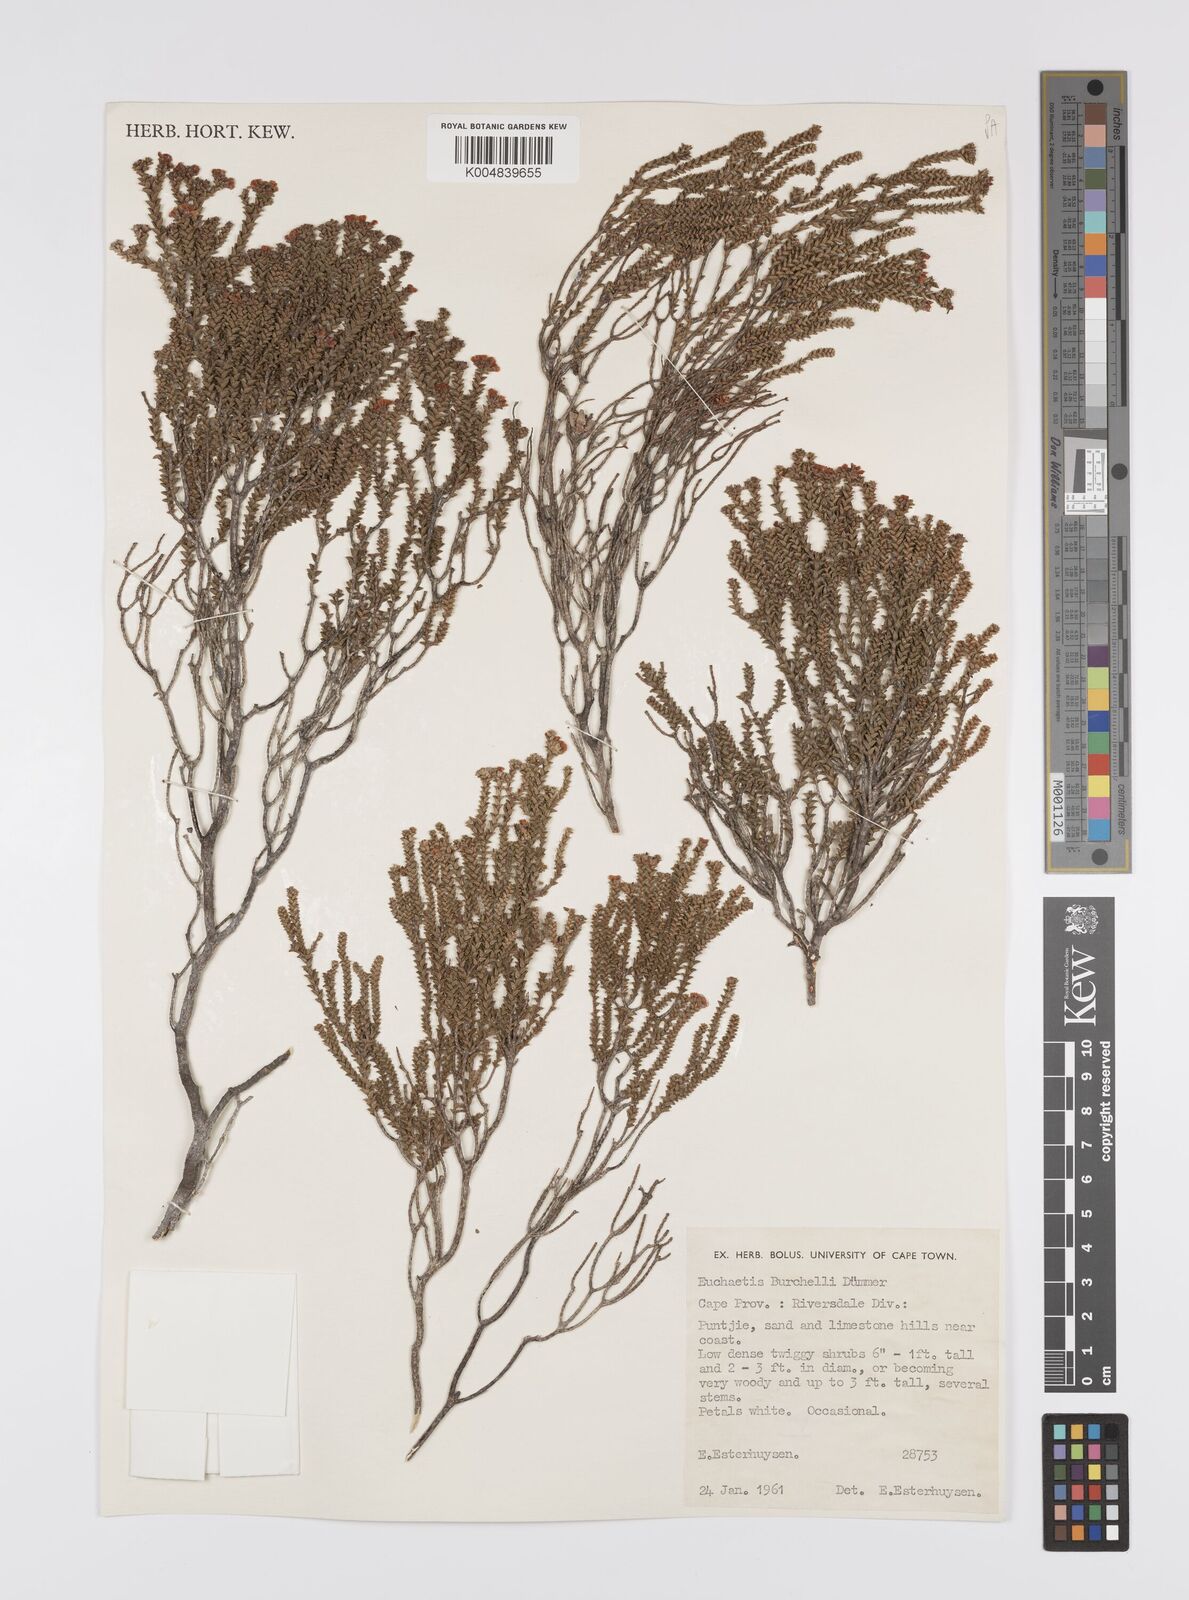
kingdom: Plantae
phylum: Tracheophyta
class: Magnoliopsida
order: Sapindales
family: Rutaceae
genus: Euchaetis
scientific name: Euchaetis burchellii
